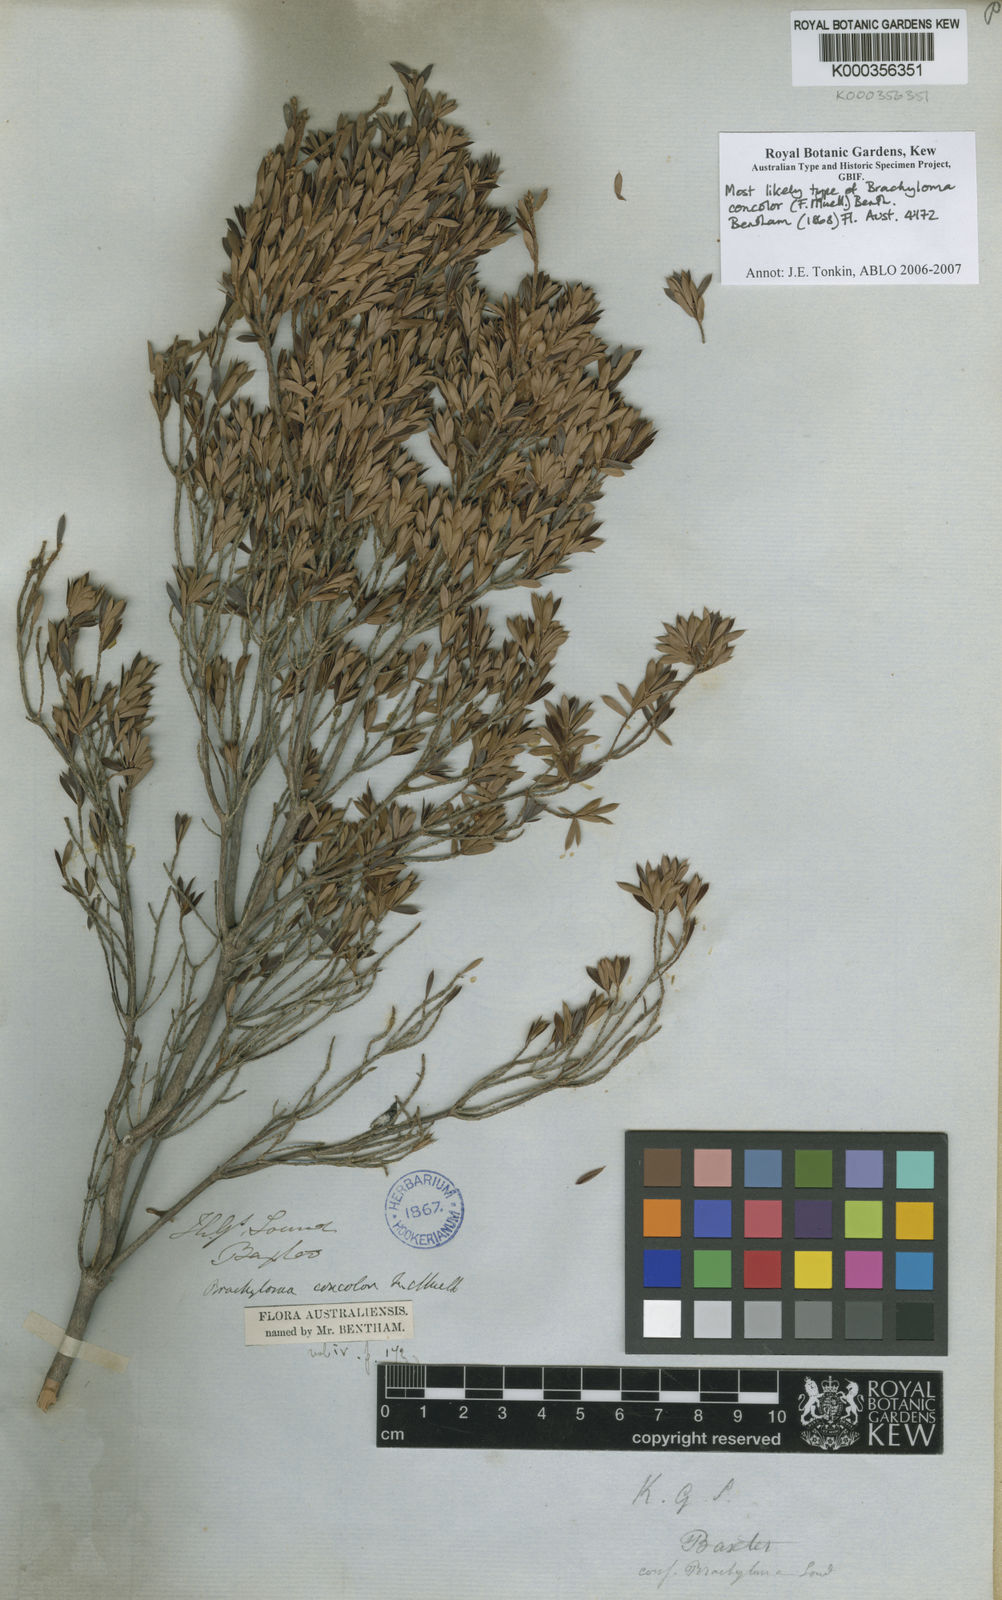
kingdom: Plantae
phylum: Tracheophyta
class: Magnoliopsida
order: Ericales
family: Ericaceae
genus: Brachyloma
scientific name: Brachyloma geissoloma
